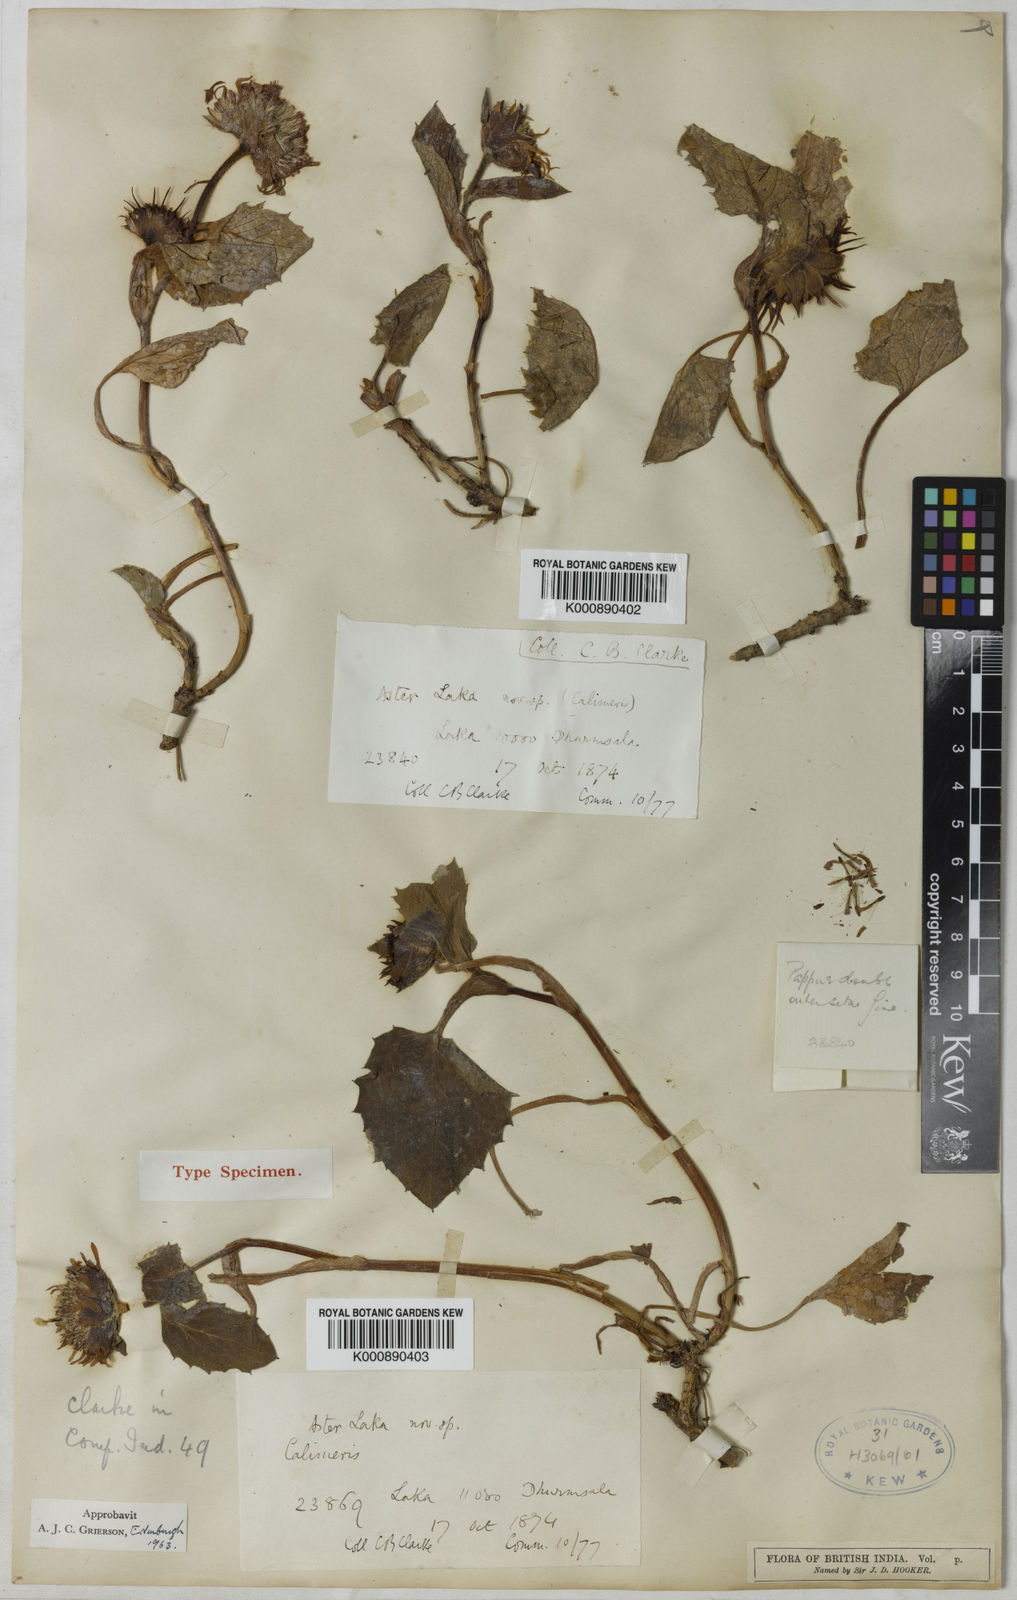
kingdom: Plantae
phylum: Tracheophyta
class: Magnoliopsida
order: Asterales
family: Asteraceae
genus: Cordiofontis
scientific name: Cordiofontis laka
